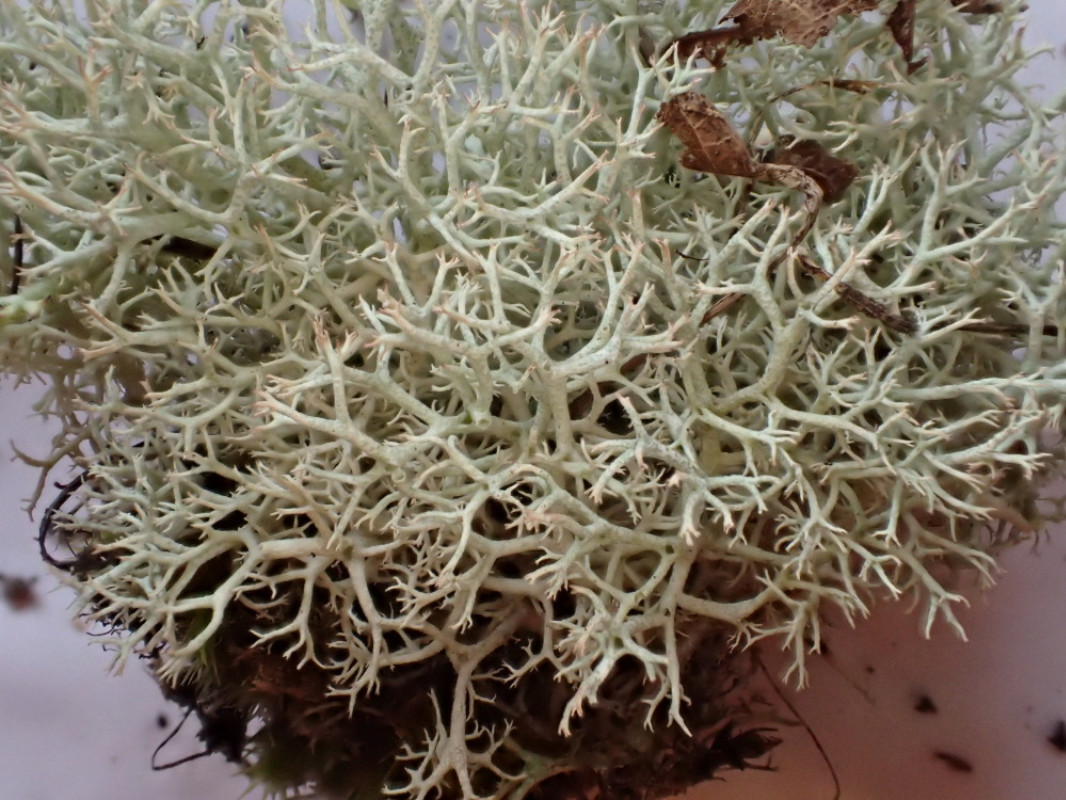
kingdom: Fungi
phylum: Ascomycota
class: Lecanoromycetes
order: Lecanorales
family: Cladoniaceae
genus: Cladonia
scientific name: Cladonia portentosa
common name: hede-rensdyrlav
